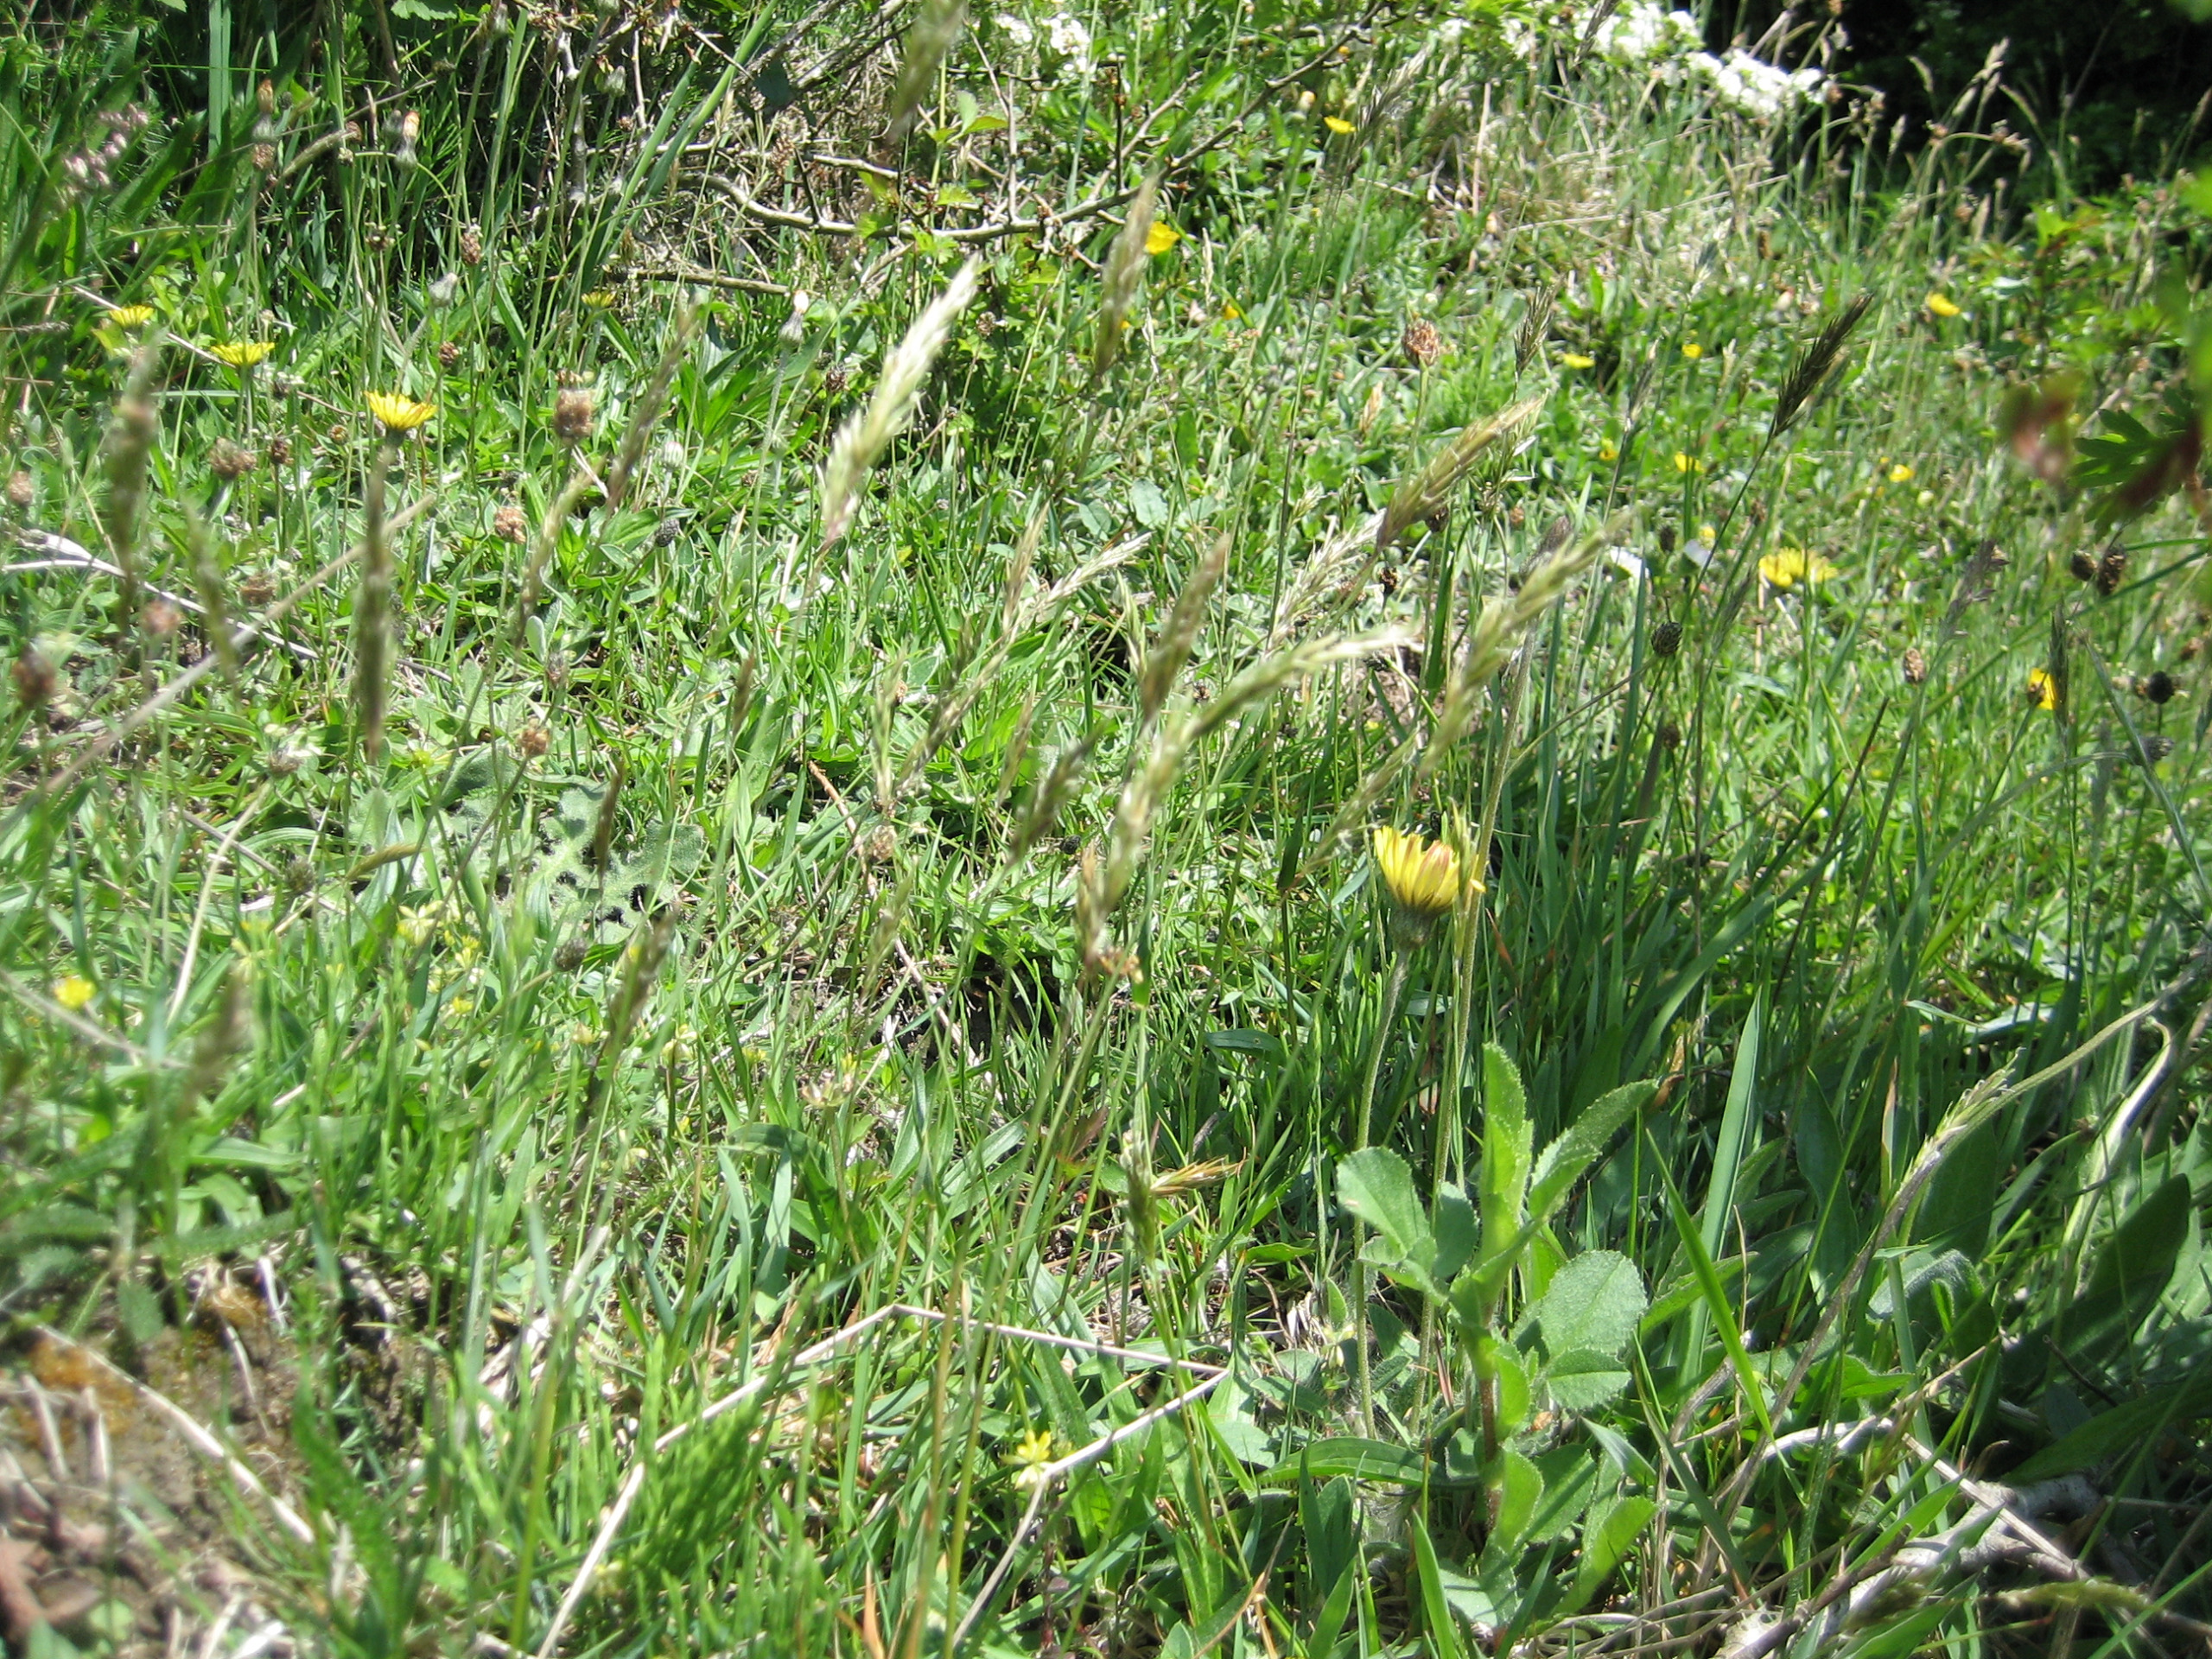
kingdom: Plantae
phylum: Tracheophyta
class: Liliopsida
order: Poales
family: Poaceae
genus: Anthoxanthum
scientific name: Anthoxanthum odoratum
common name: Vellugtende gulaks
